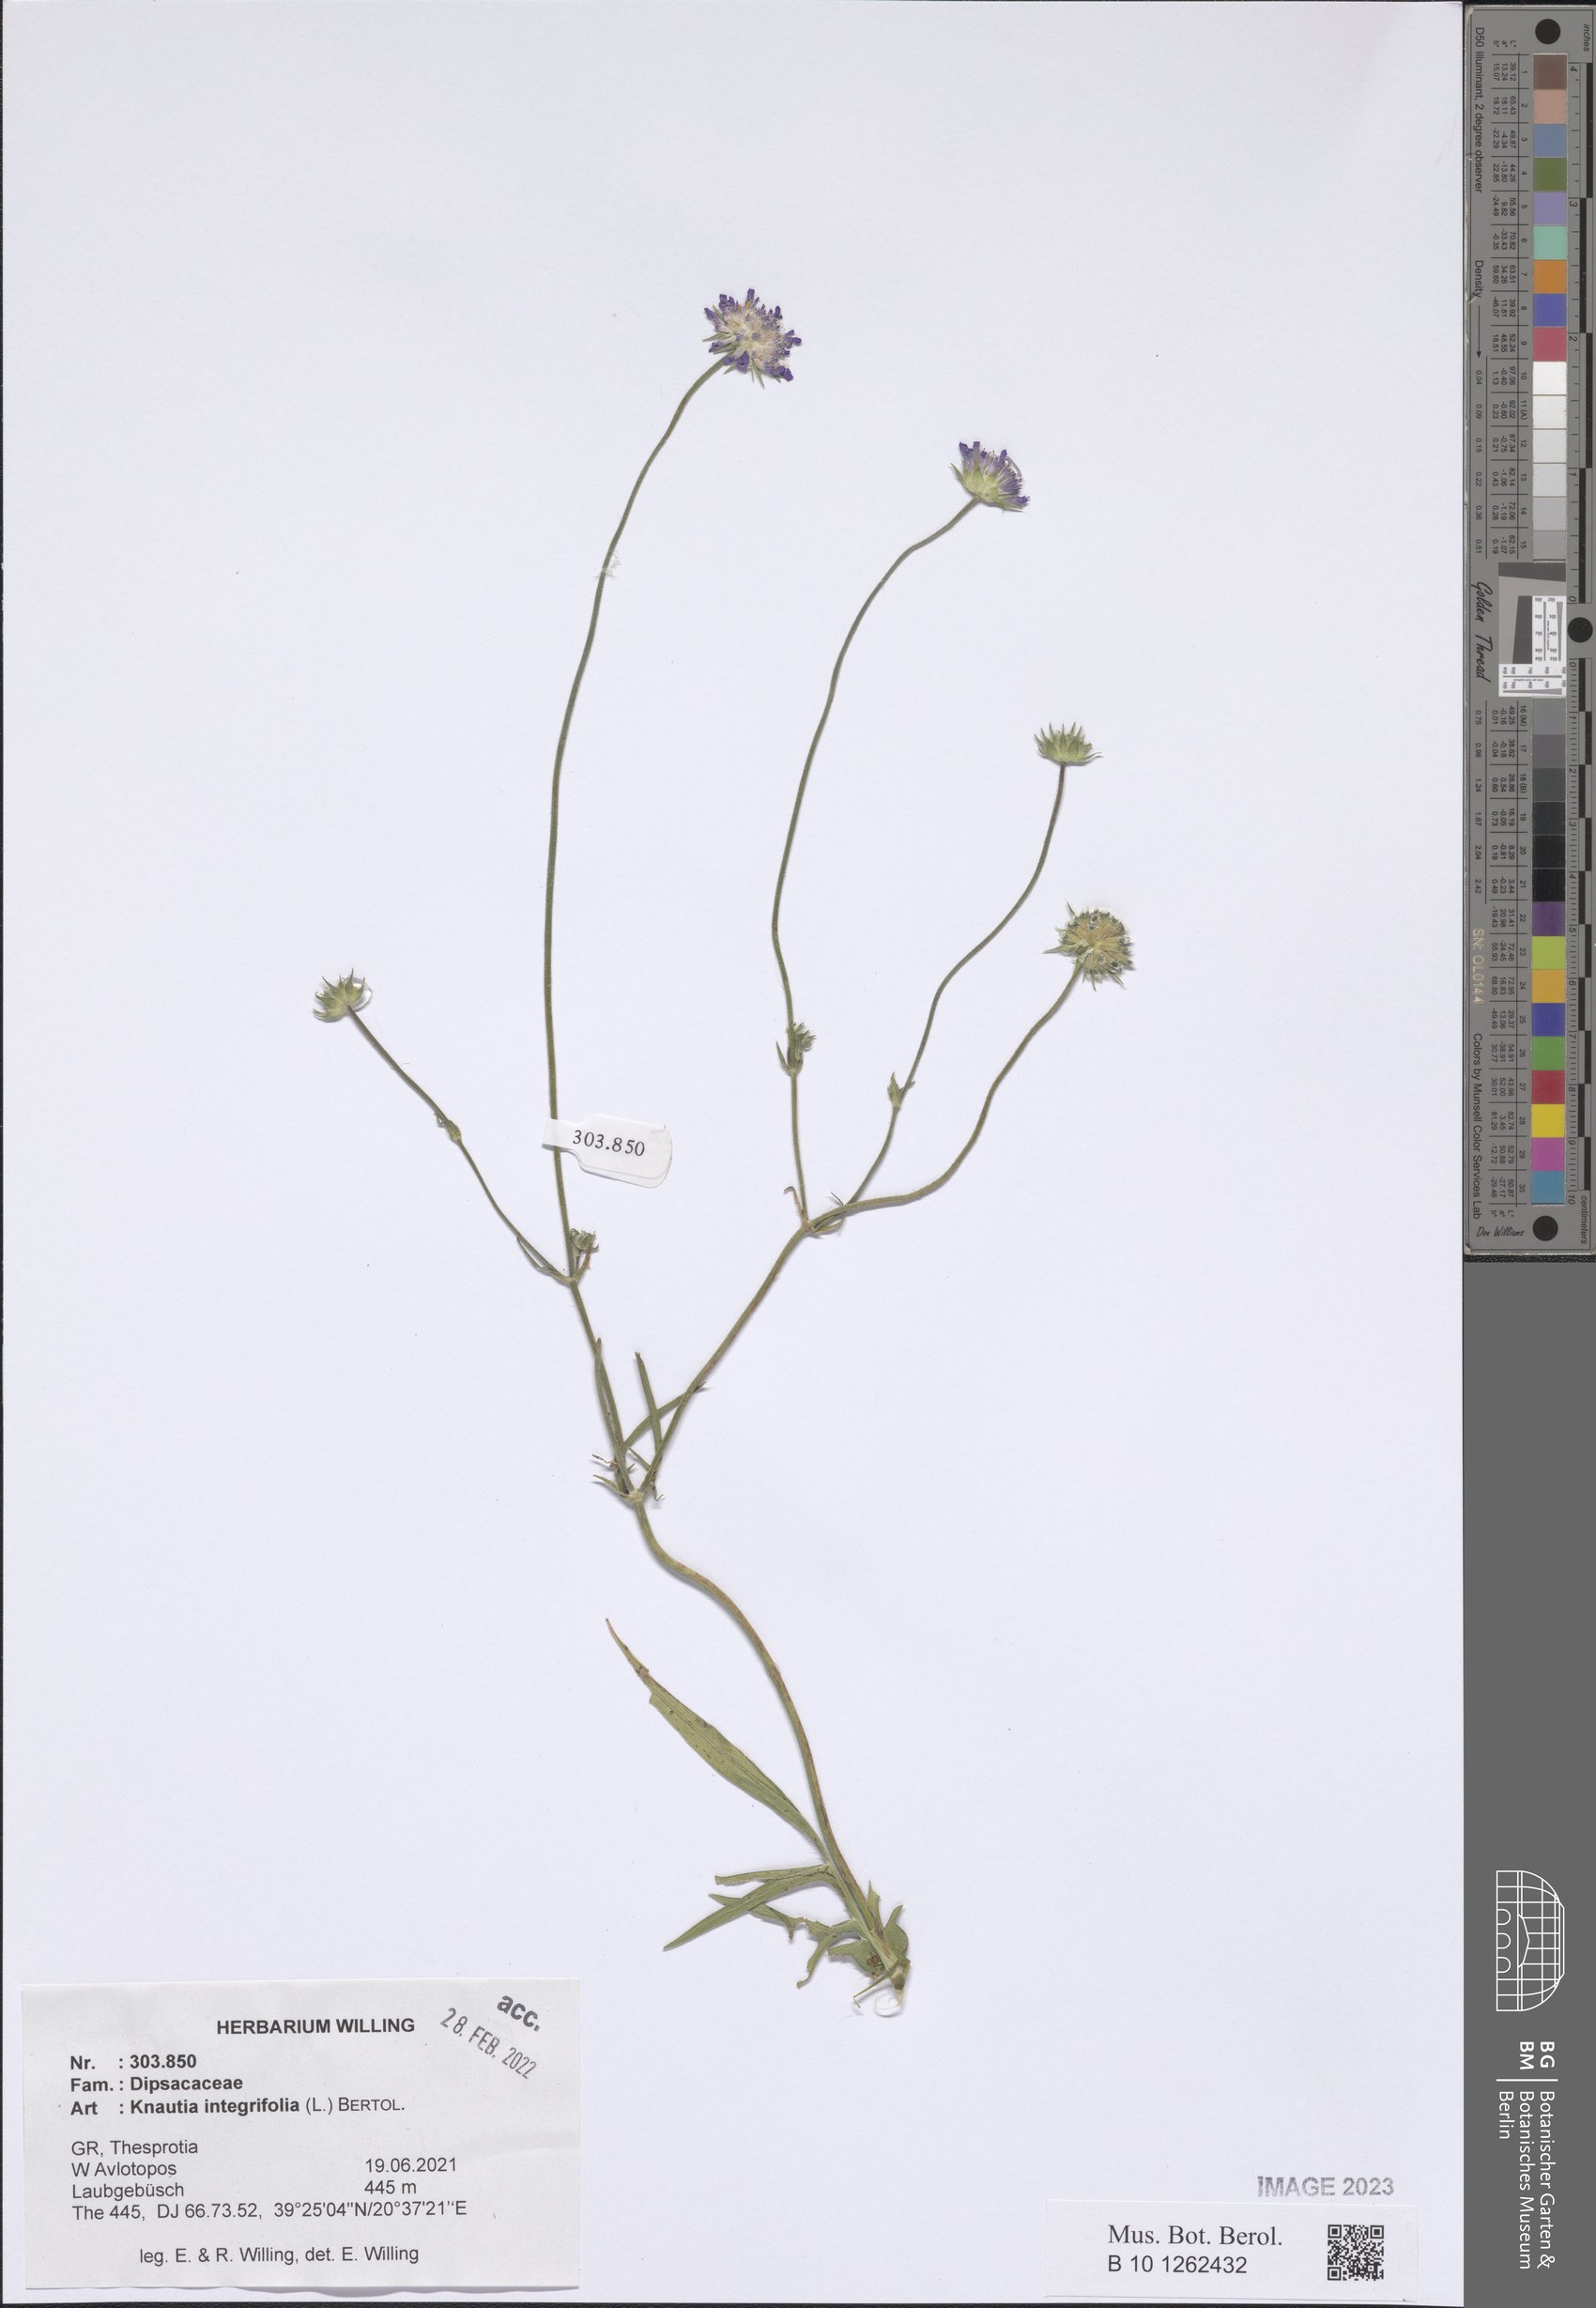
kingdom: Plantae
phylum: Tracheophyta
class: Magnoliopsida
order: Dipsacales
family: Caprifoliaceae
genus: Knautia
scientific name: Knautia integrifolia
